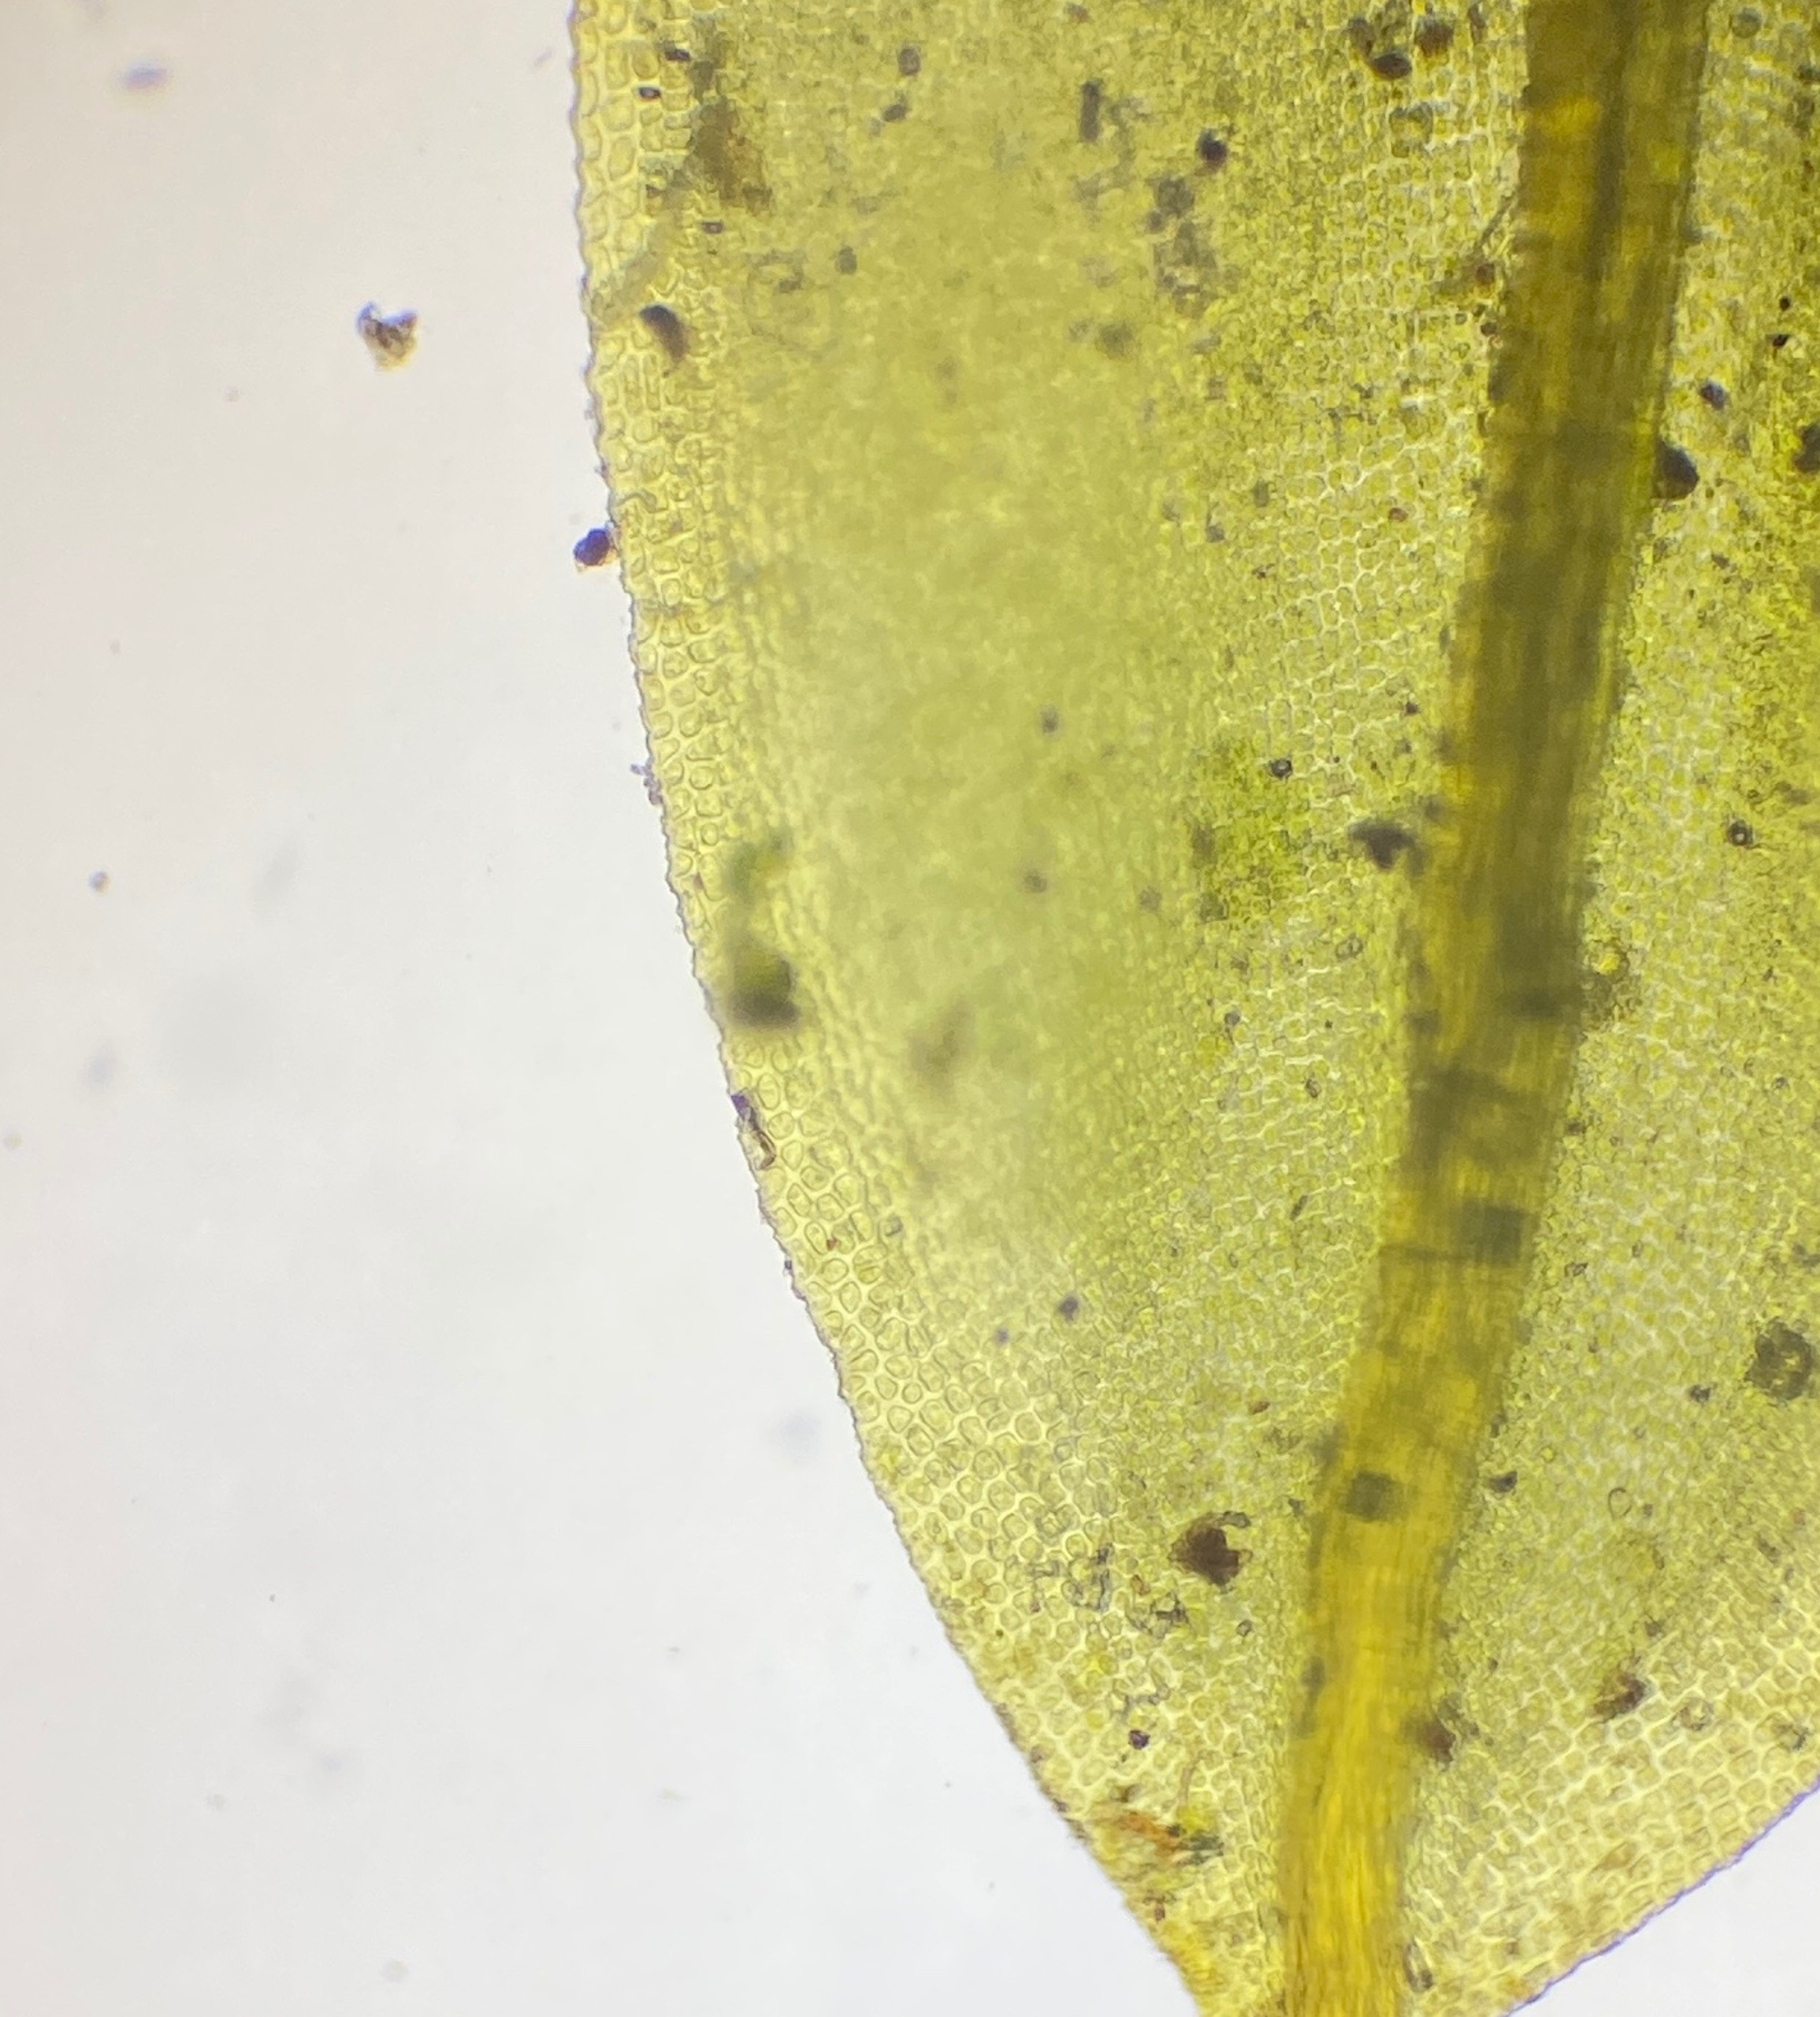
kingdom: Plantae
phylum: Bryophyta
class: Bryopsida
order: Pottiales
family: Pottiaceae
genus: Tortula
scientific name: Tortula subulata
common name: Syl-snotand
